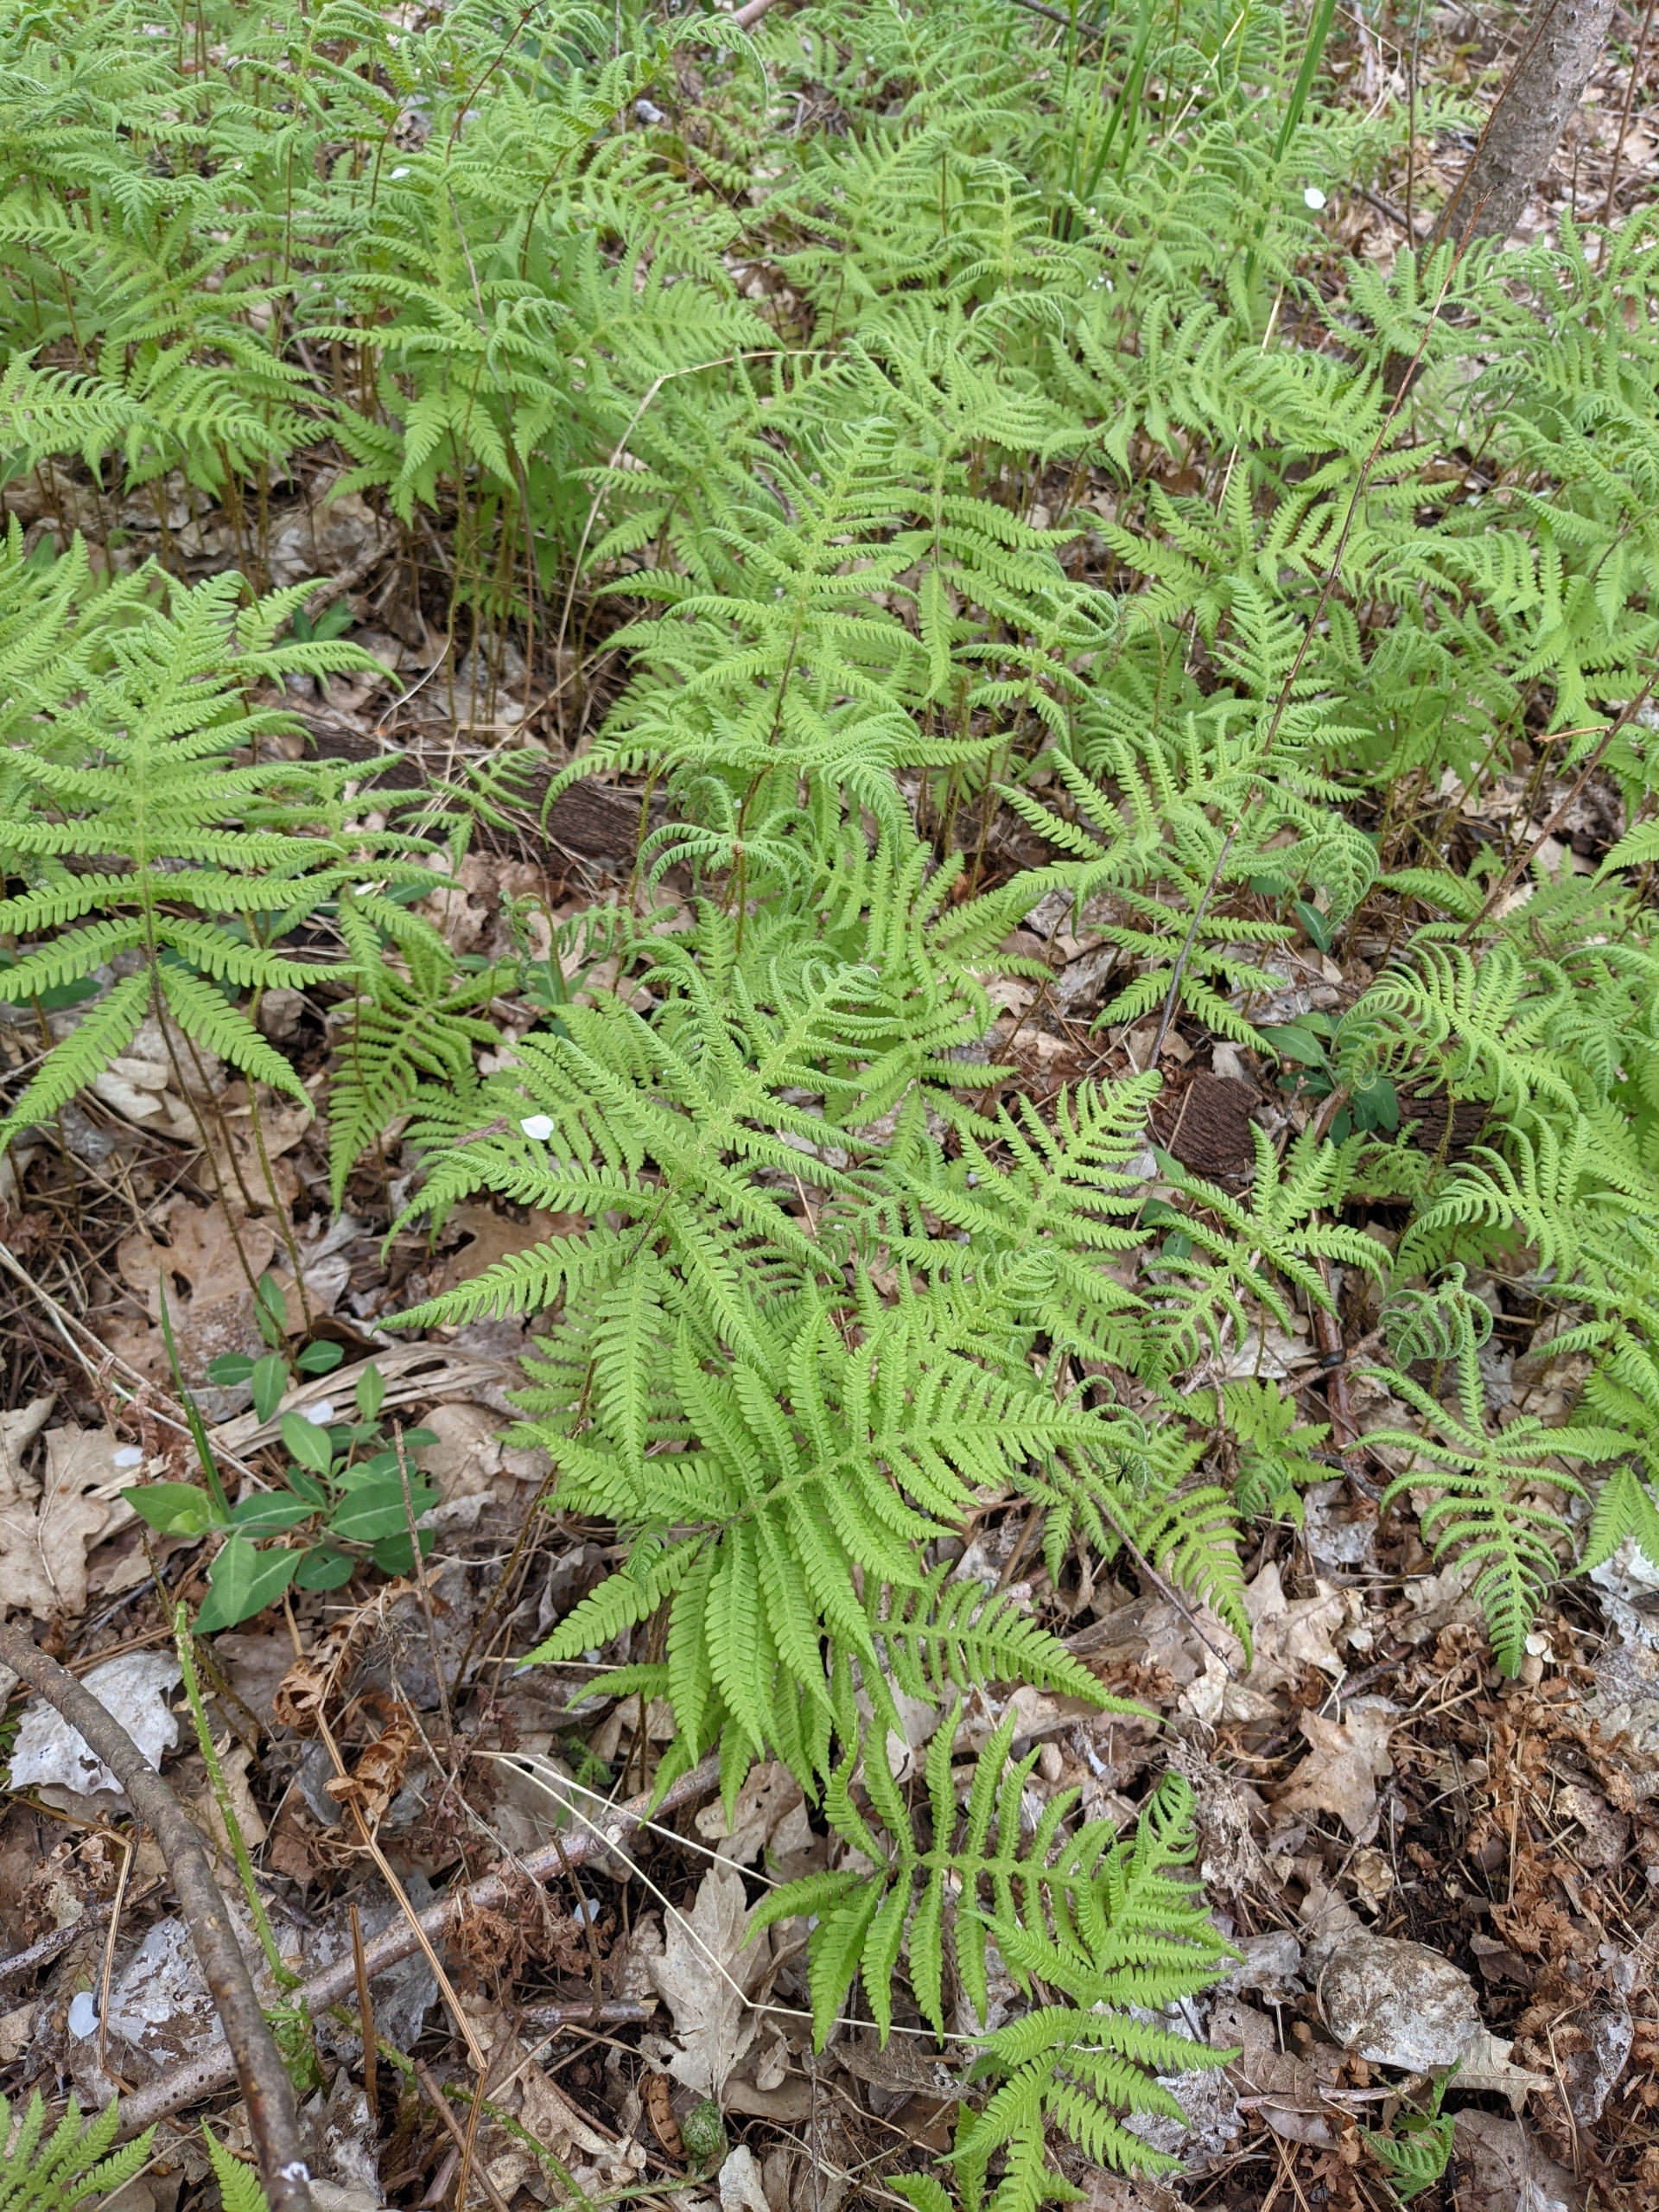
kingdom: Plantae
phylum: Tracheophyta
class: Polypodiopsida
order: Polypodiales
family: Thelypteridaceae
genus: Phegopteris
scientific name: Phegopteris connectilis
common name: Dunet egebregne
